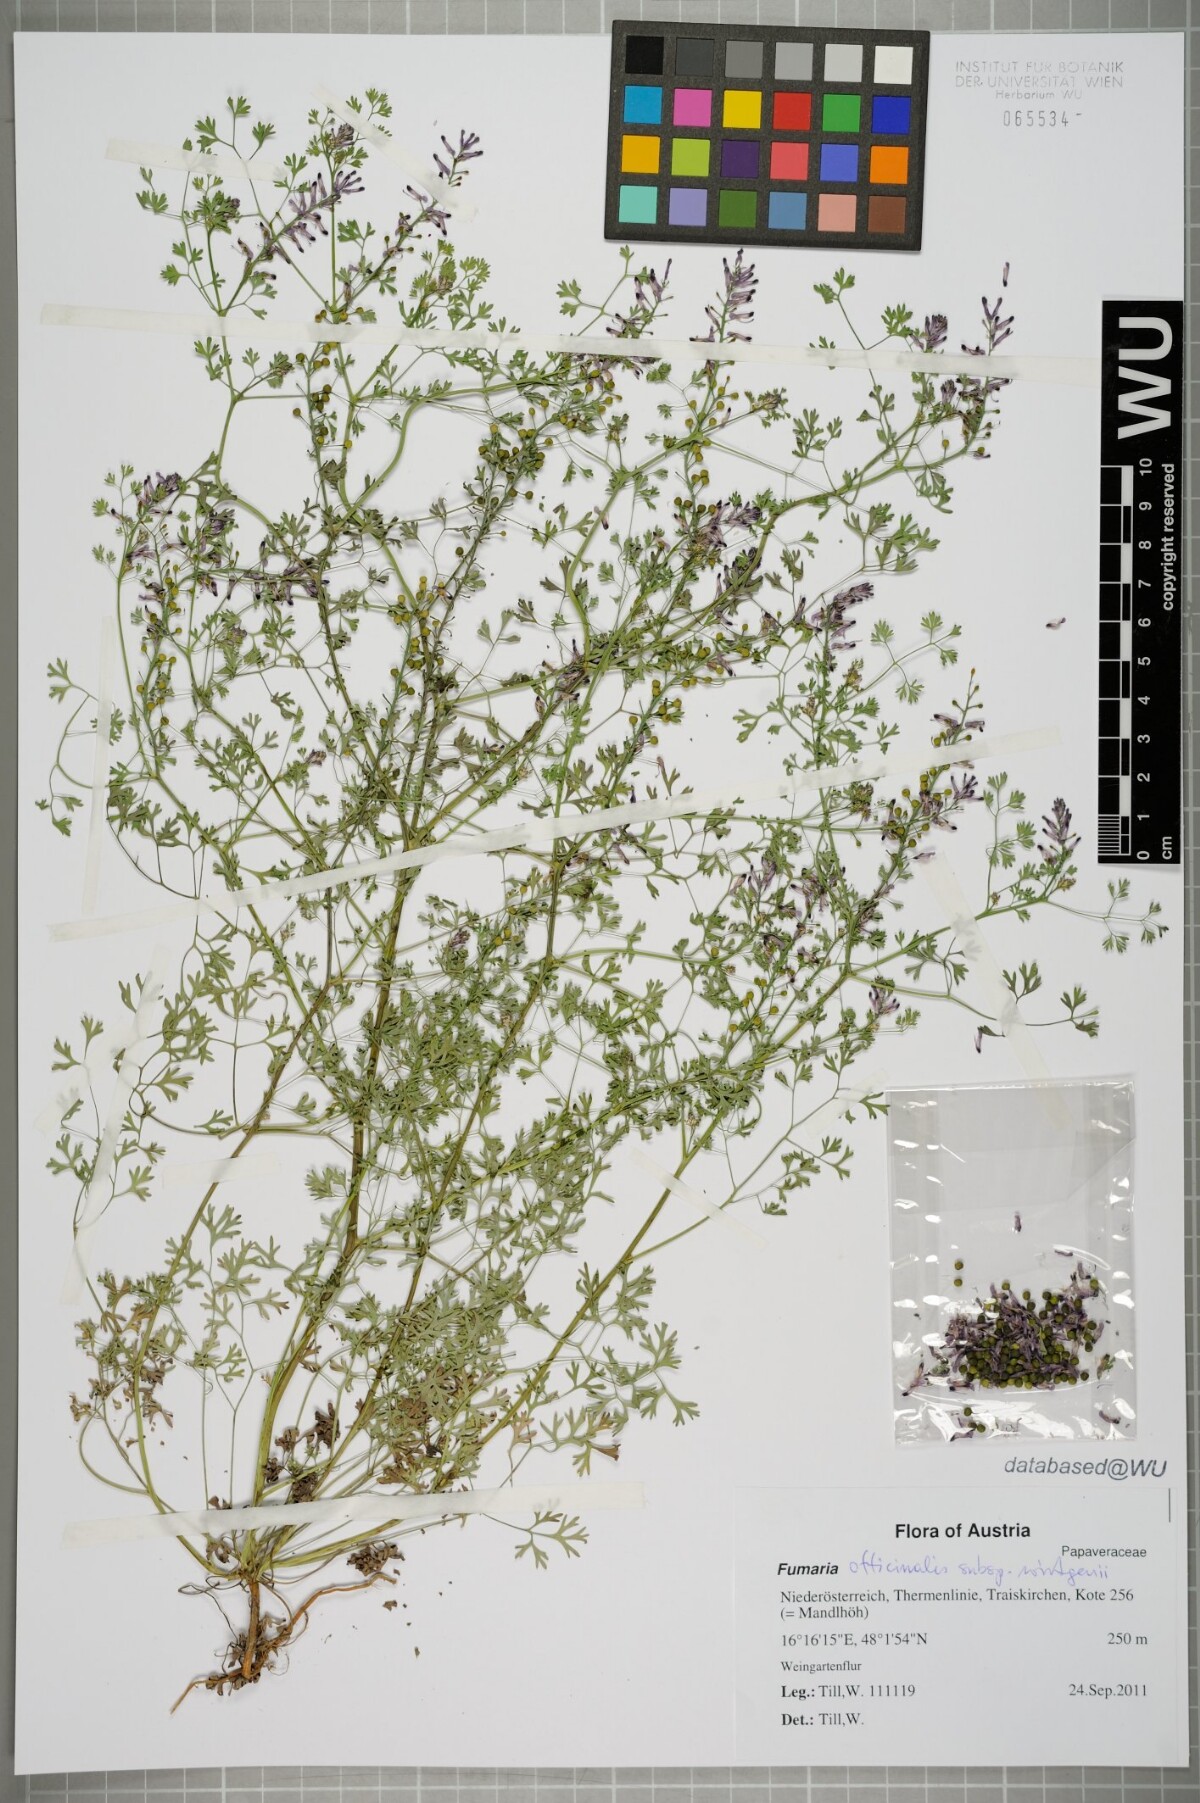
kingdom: Plantae
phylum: Tracheophyta
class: Magnoliopsida
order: Ranunculales
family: Papaveraceae
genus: Fumaria
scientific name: Fumaria wirtgenii
